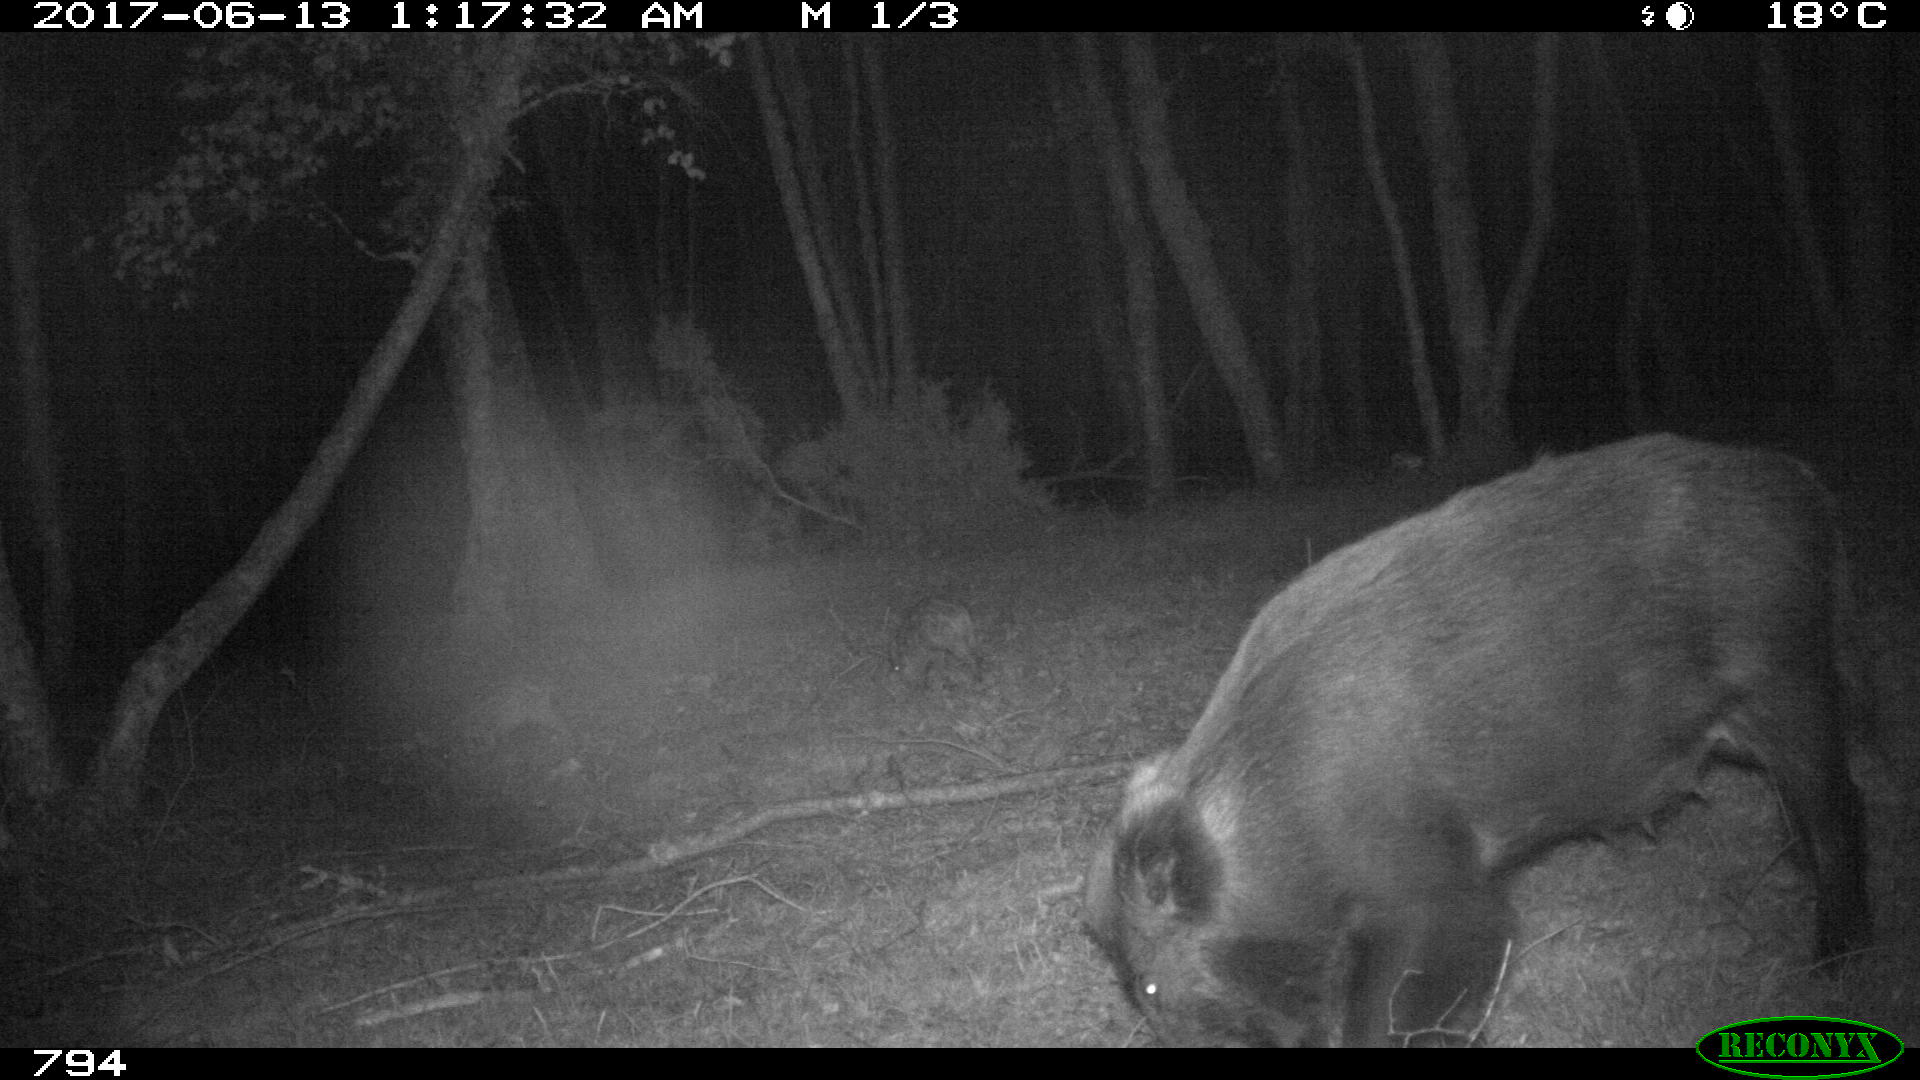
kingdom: Animalia
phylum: Chordata
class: Mammalia
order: Artiodactyla
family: Suidae
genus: Sus
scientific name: Sus scrofa
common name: Wild boar
